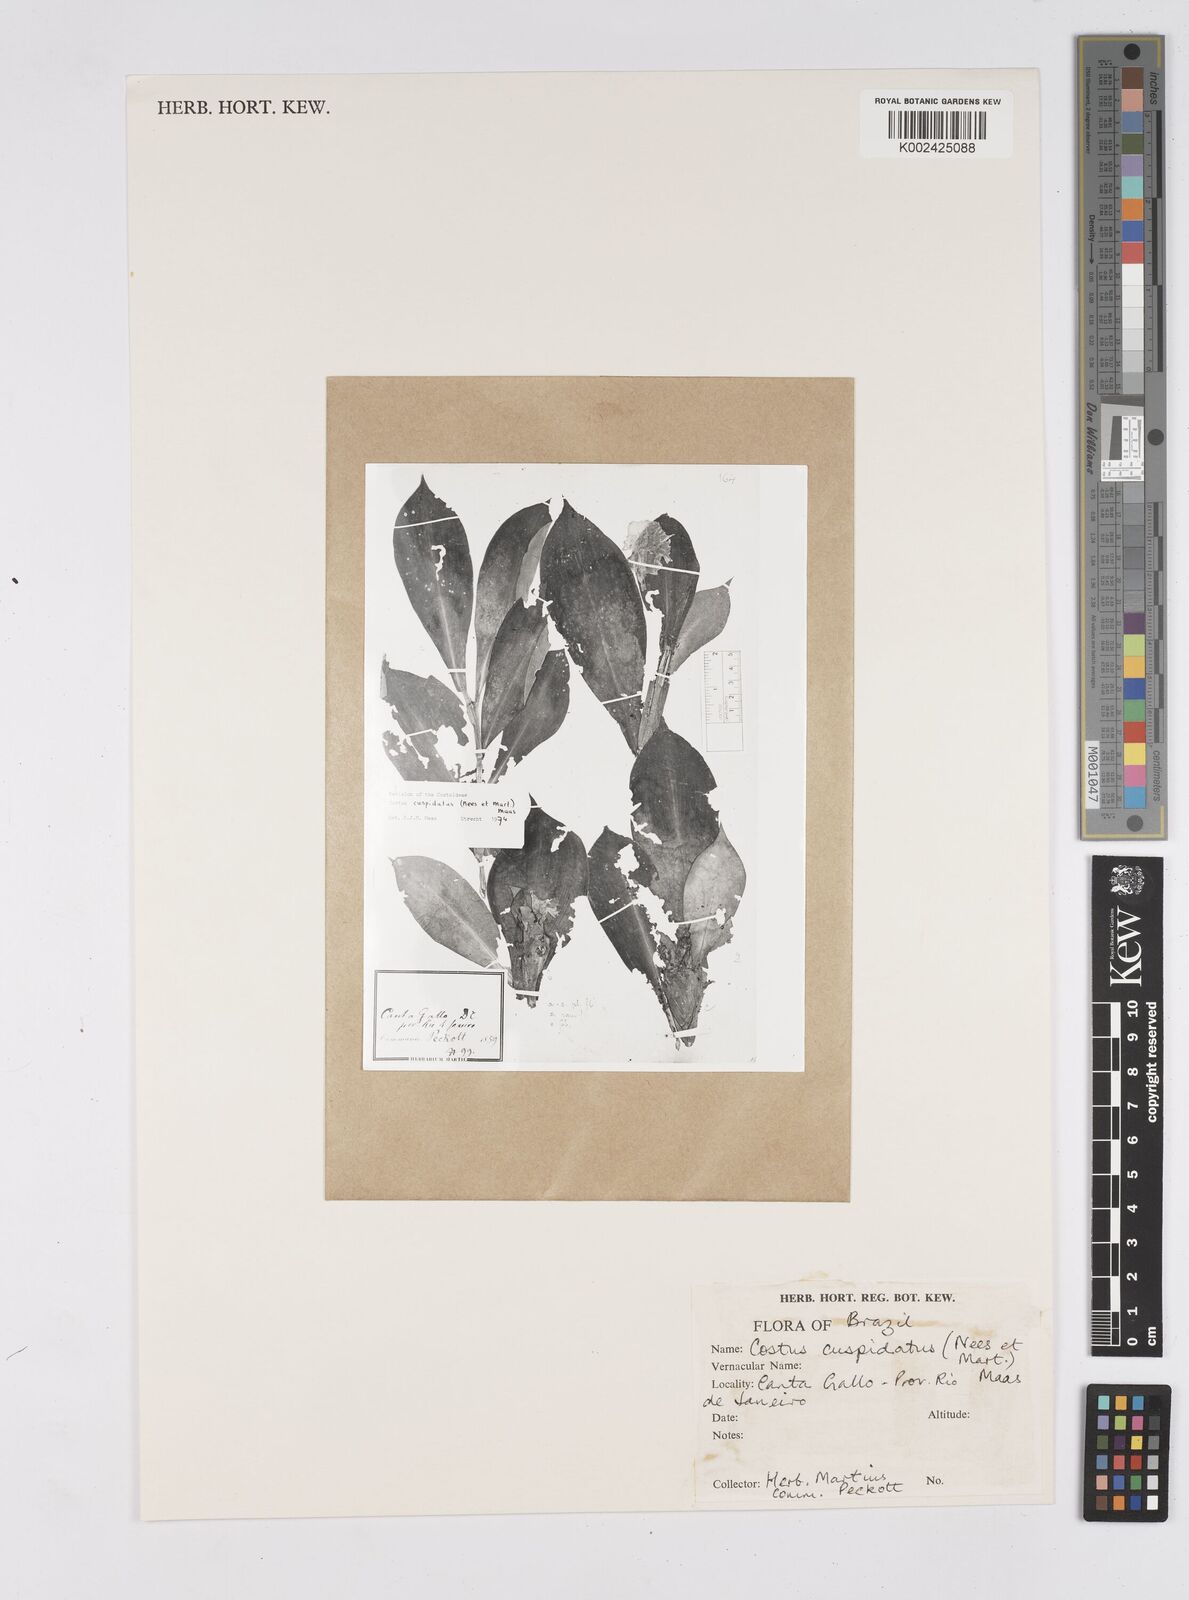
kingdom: Plantae
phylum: Tracheophyta
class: Liliopsida
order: Zingiberales
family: Costaceae
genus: Chamaecostus
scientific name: Chamaecostus cuspidatus
